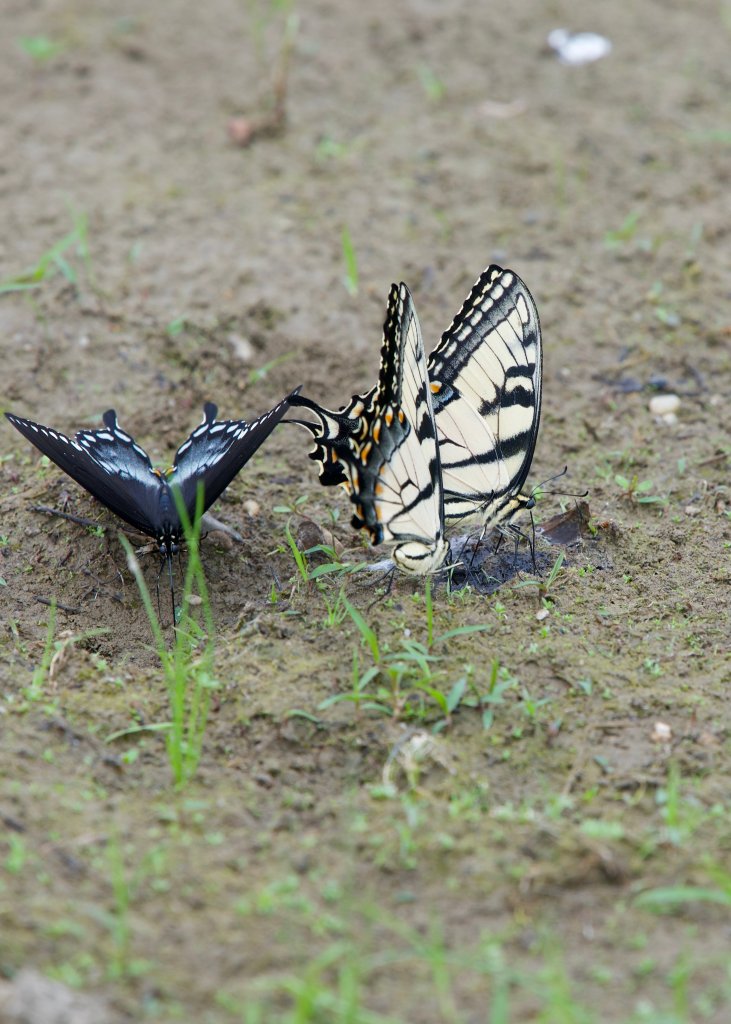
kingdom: Animalia
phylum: Arthropoda
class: Insecta
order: Lepidoptera
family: Papilionidae
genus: Pterourus
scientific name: Pterourus glaucus
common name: Eastern Tiger Swallowtail
